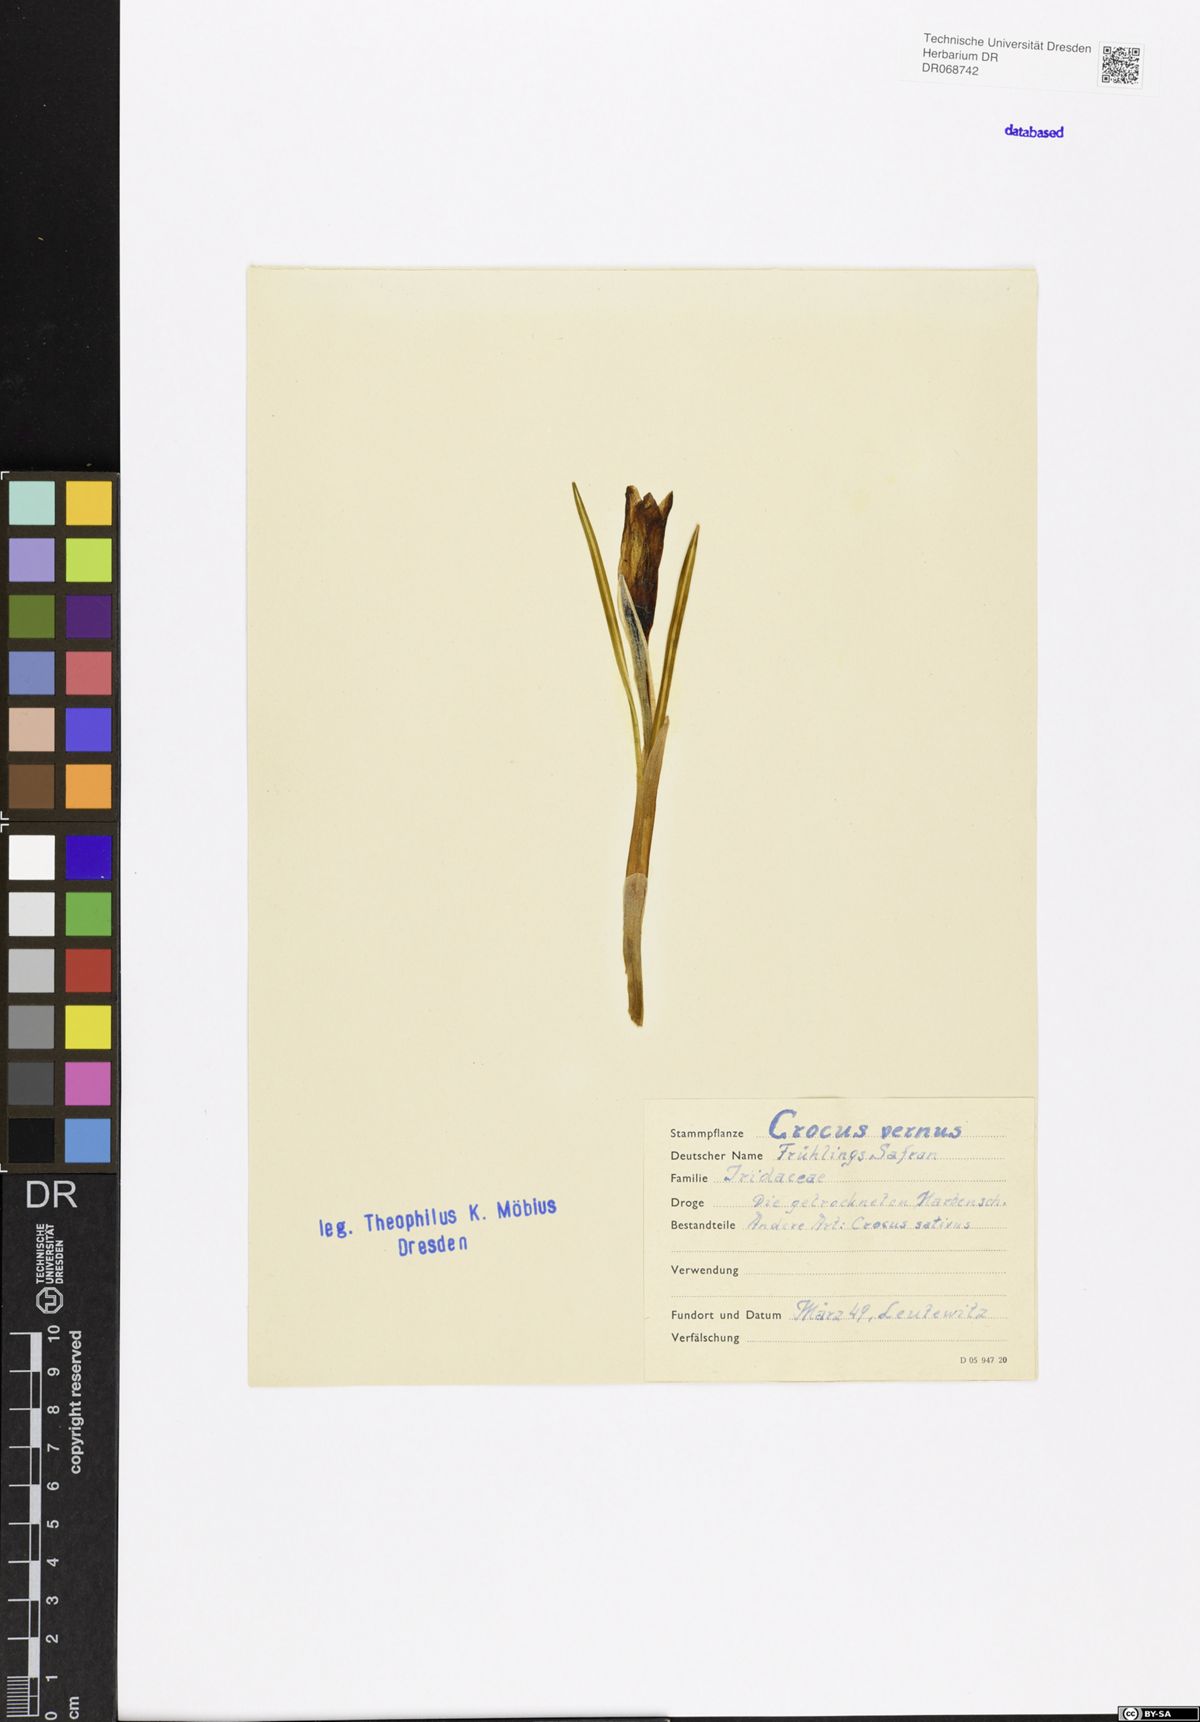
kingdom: Plantae
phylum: Tracheophyta
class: Liliopsida
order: Asparagales
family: Iridaceae
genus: Crocus
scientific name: Crocus vernus
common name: Spring crocus
